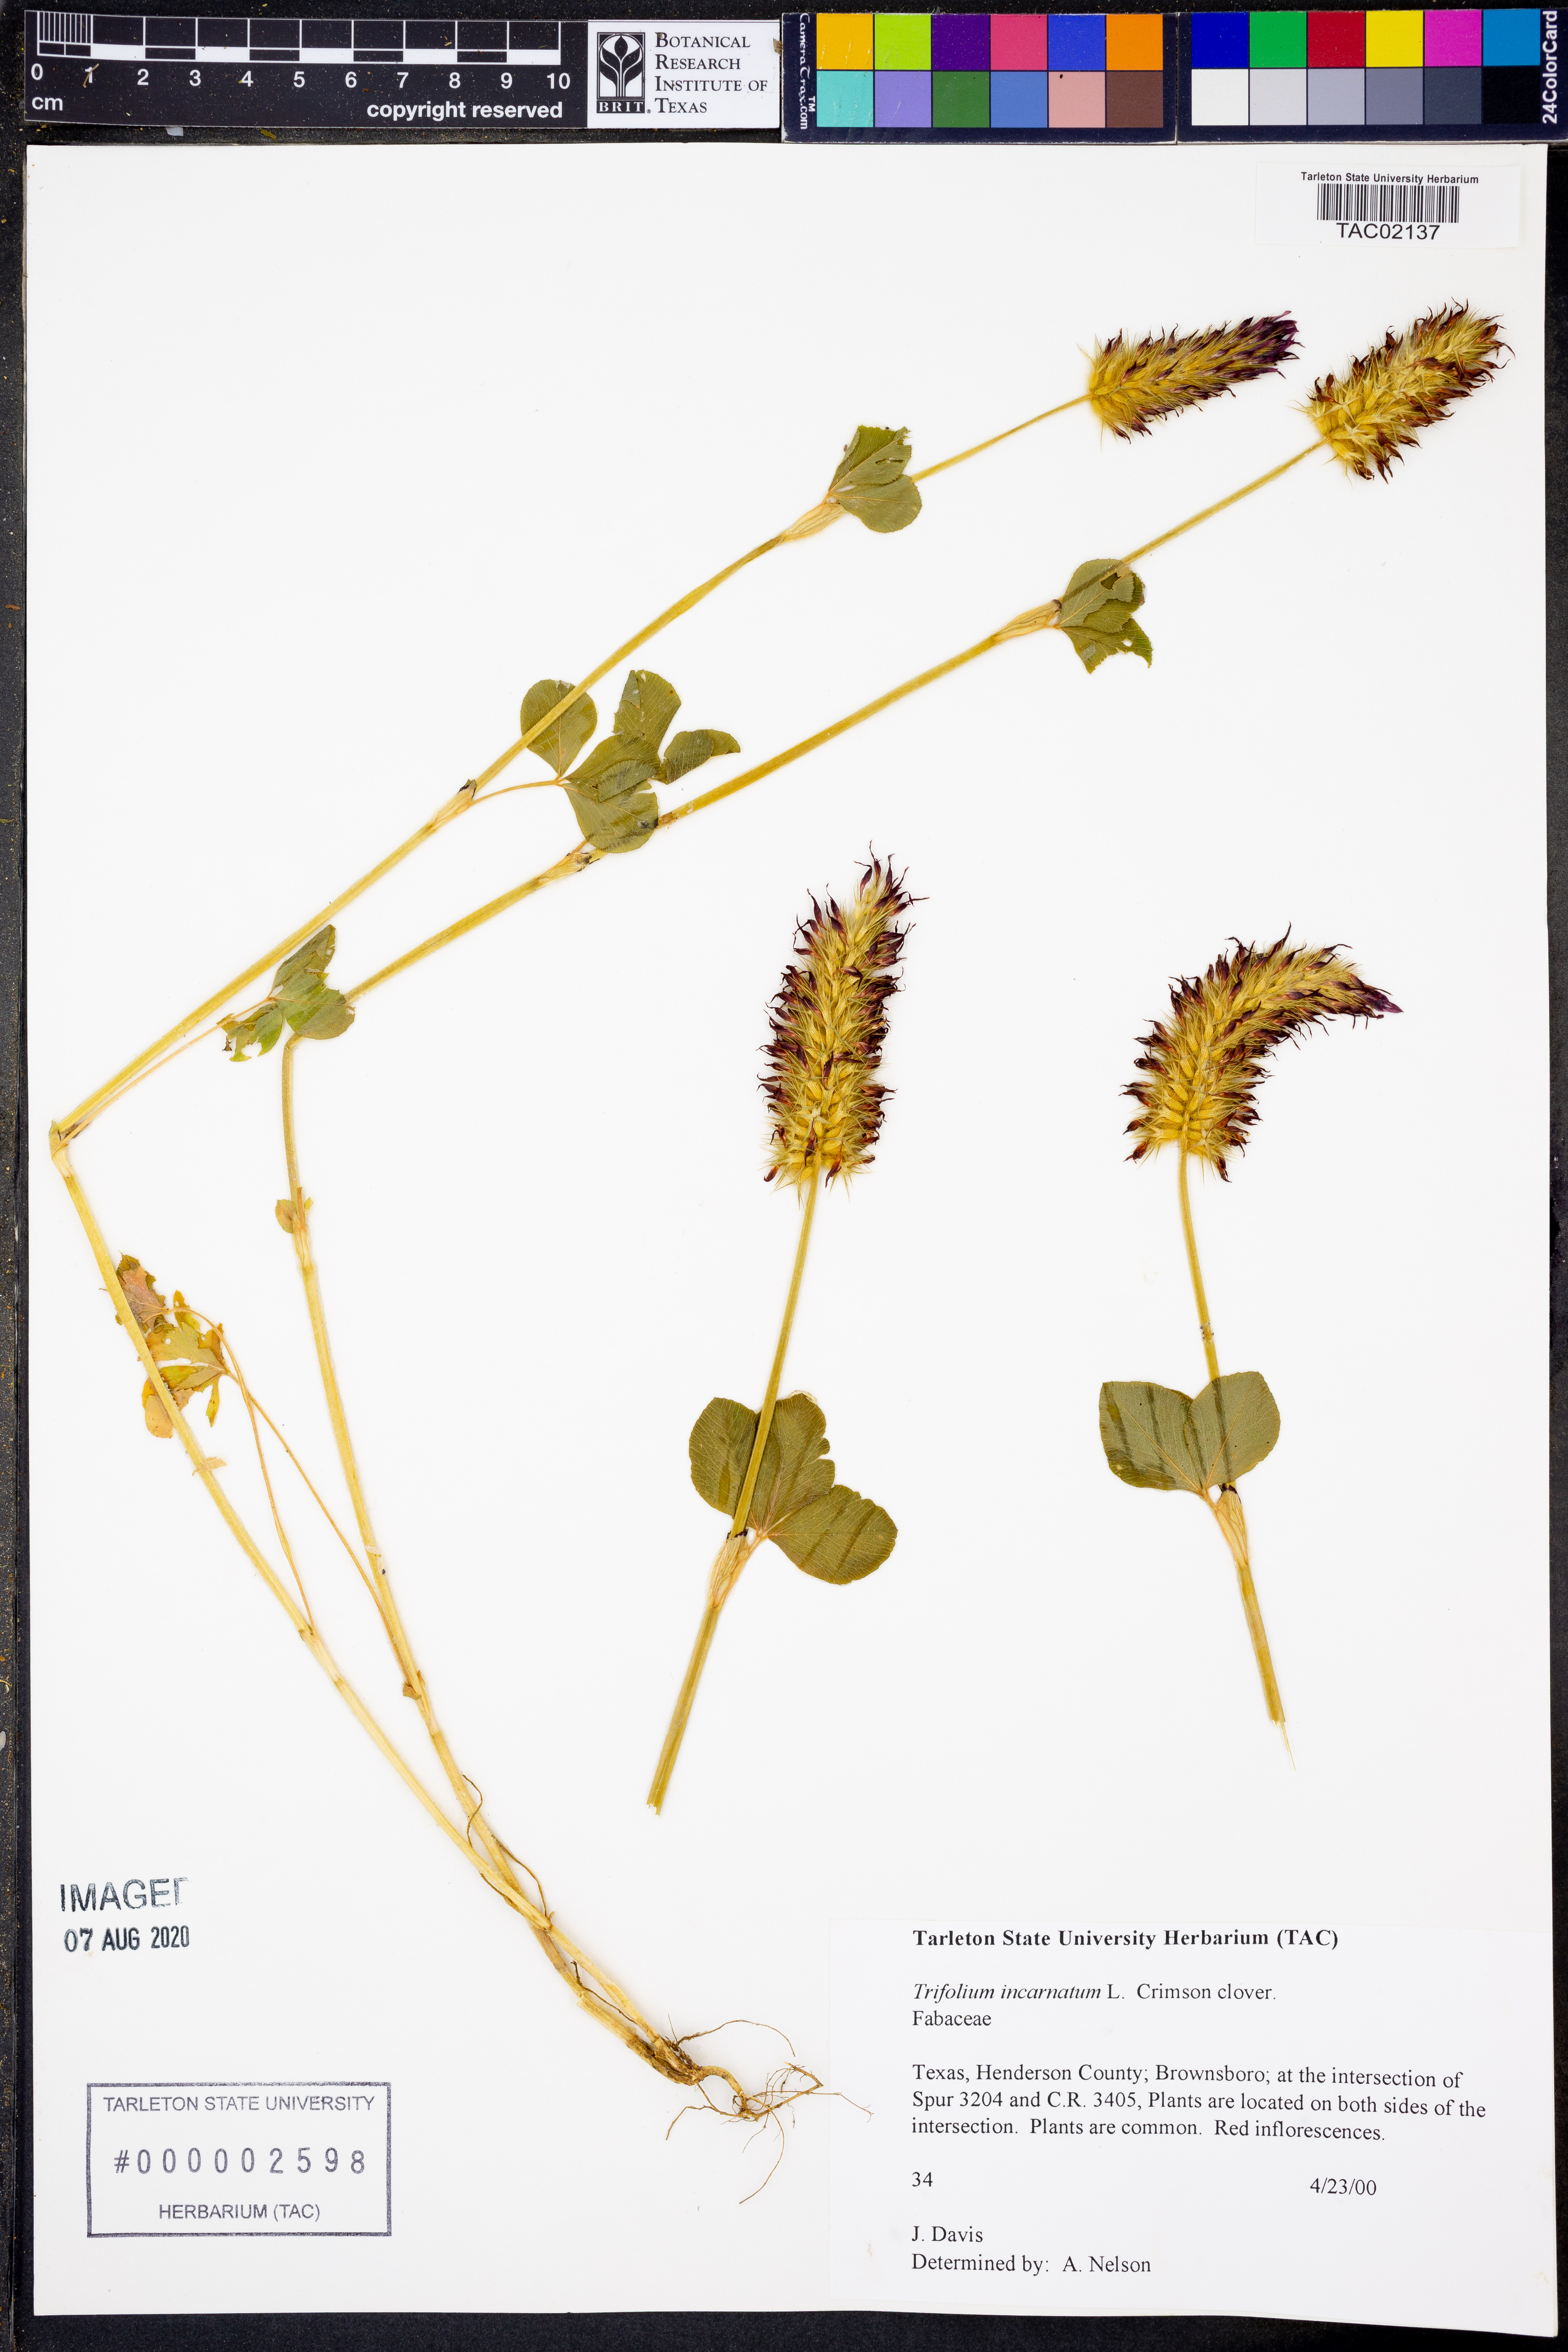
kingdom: Plantae
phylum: Tracheophyta
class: Magnoliopsida
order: Fabales
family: Fabaceae
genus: Trifolium
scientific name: Trifolium incarnatum
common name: Crimson clover
